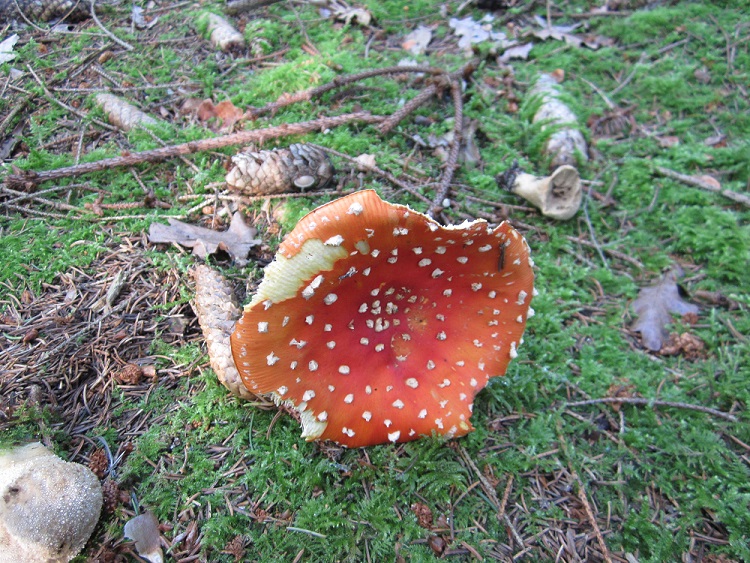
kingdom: Fungi
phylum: Basidiomycota
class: Agaricomycetes
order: Agaricales
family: Amanitaceae
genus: Amanita
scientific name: Amanita muscaria
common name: rød fluesvamp
